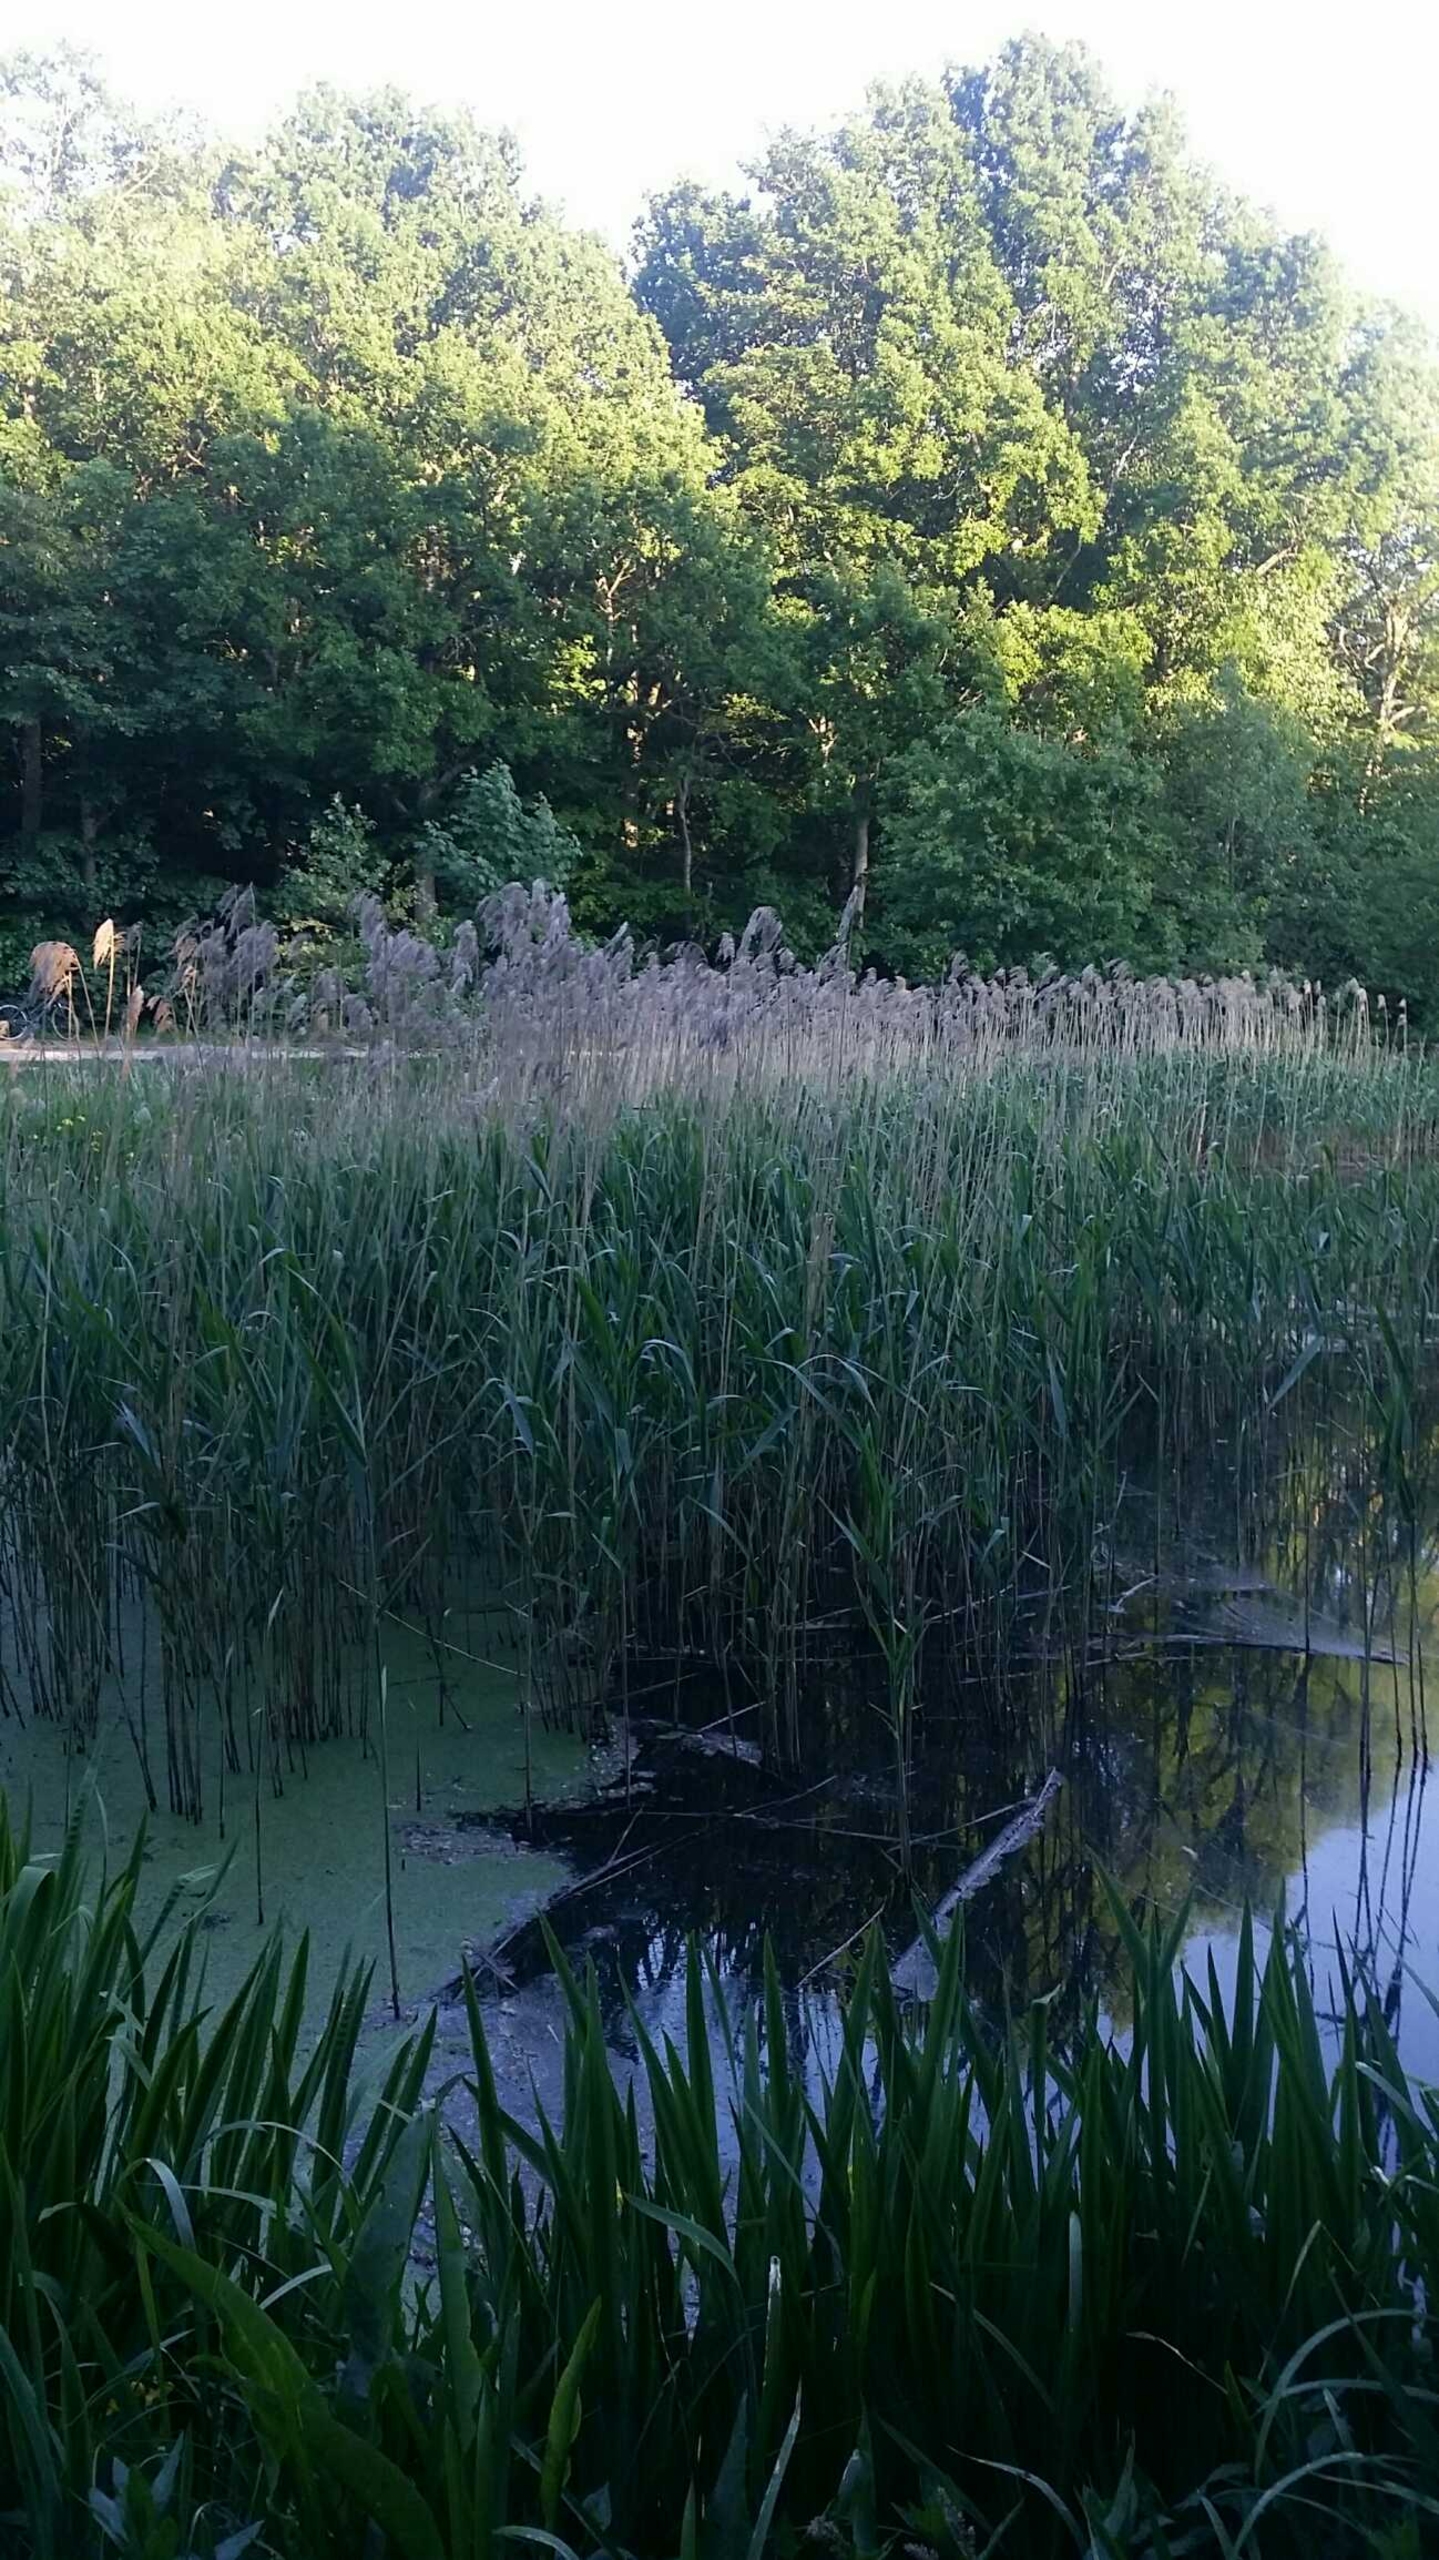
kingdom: Plantae
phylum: Tracheophyta
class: Liliopsida
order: Poales
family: Poaceae
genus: Phragmites
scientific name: Phragmites australis
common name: Tagrør
